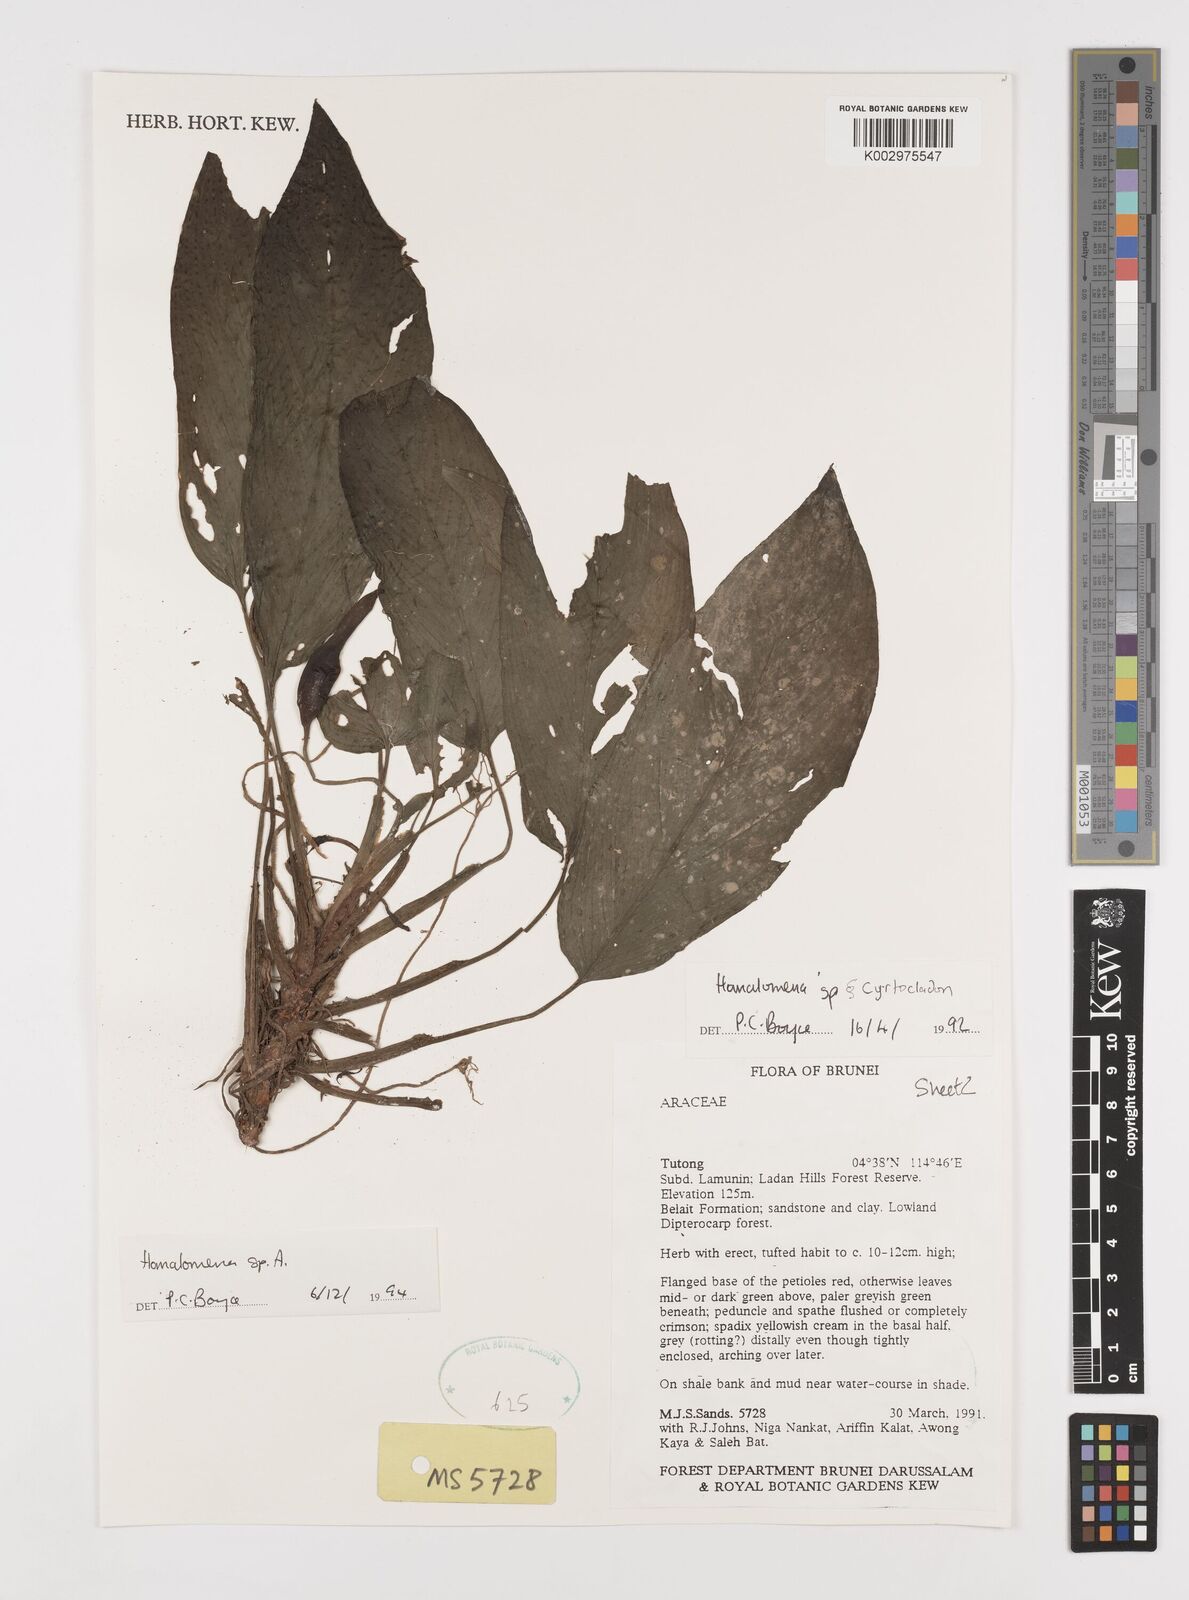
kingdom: Plantae
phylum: Tracheophyta
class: Liliopsida
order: Alismatales
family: Araceae
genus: Homalomena
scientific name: Homalomena
